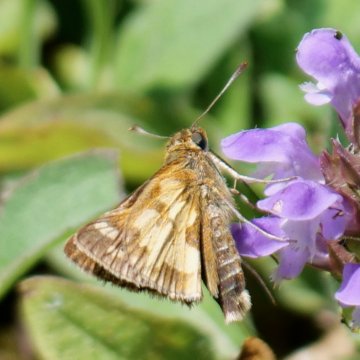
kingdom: Animalia
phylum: Arthropoda
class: Insecta
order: Lepidoptera
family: Hesperiidae
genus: Polites
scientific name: Polites coras
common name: Peck's Skipper
